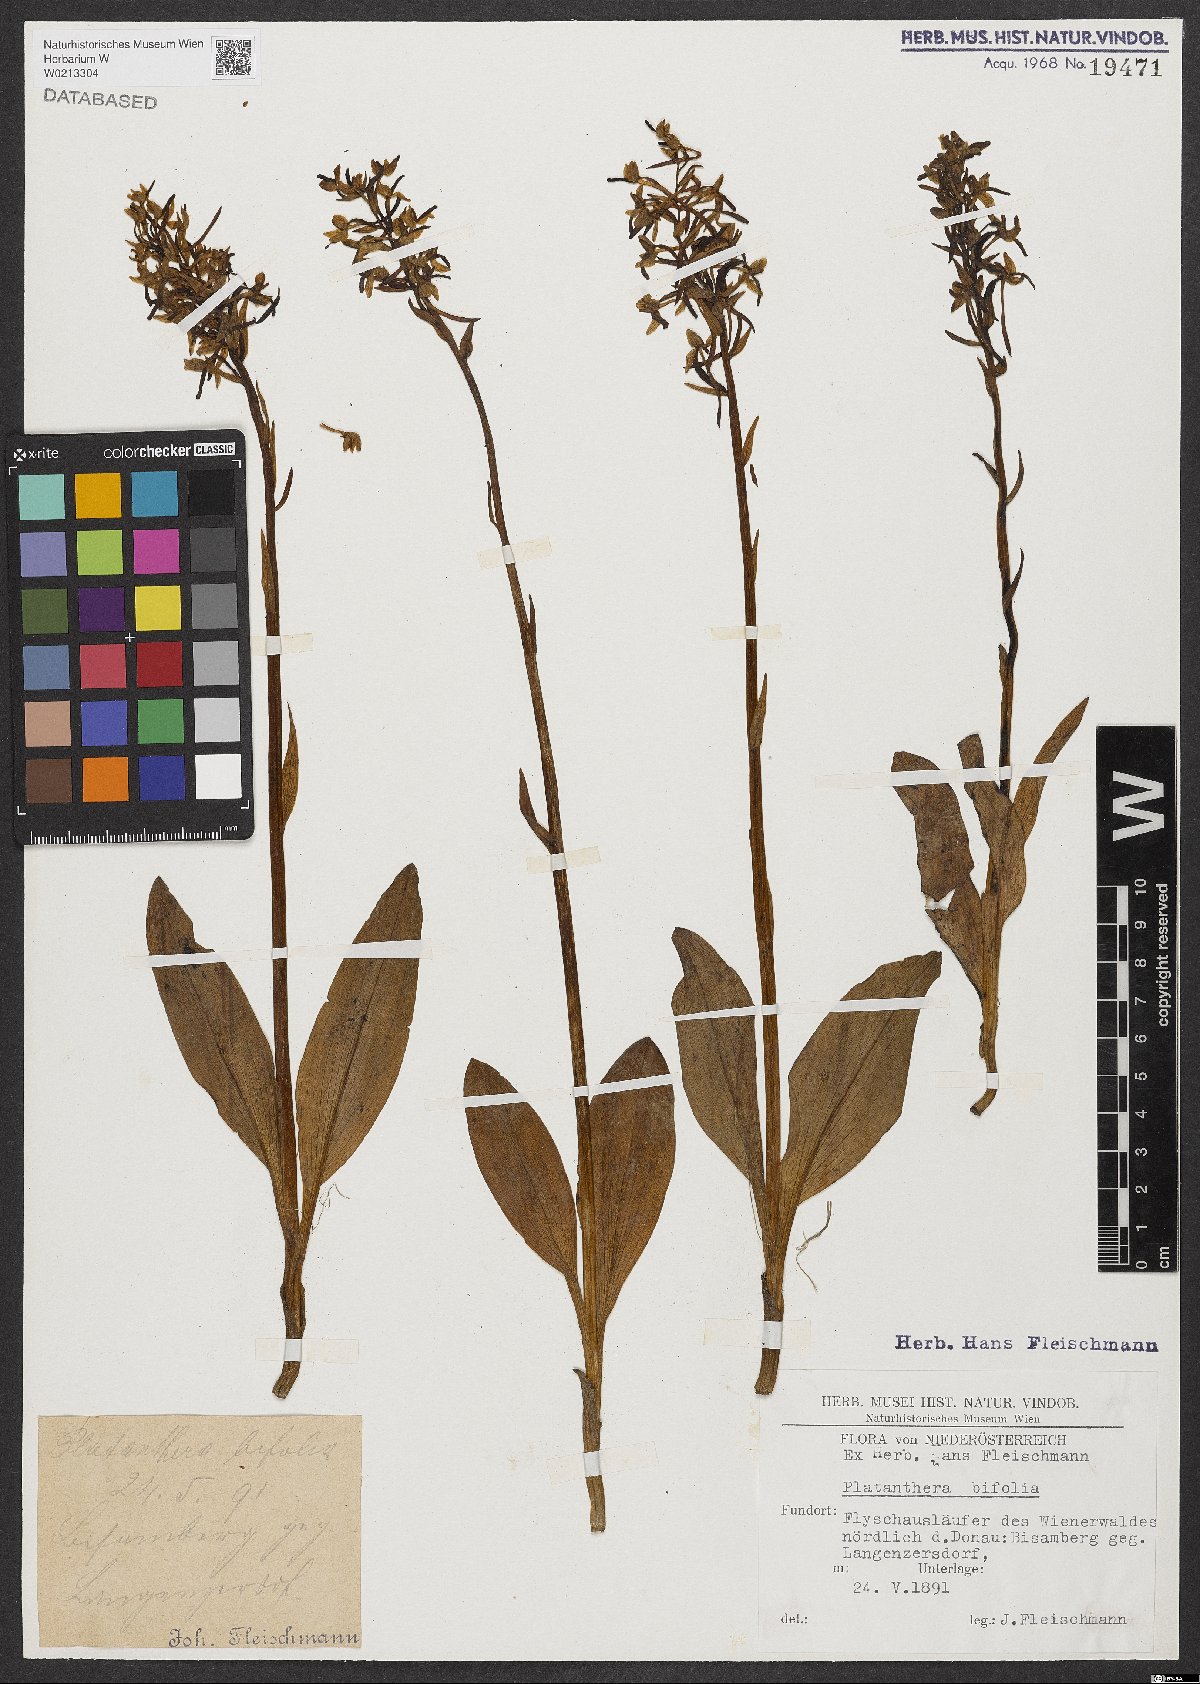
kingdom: Plantae
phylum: Tracheophyta
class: Liliopsida
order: Asparagales
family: Orchidaceae
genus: Platanthera
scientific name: Platanthera bifolia
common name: Lesser butterfly-orchid
